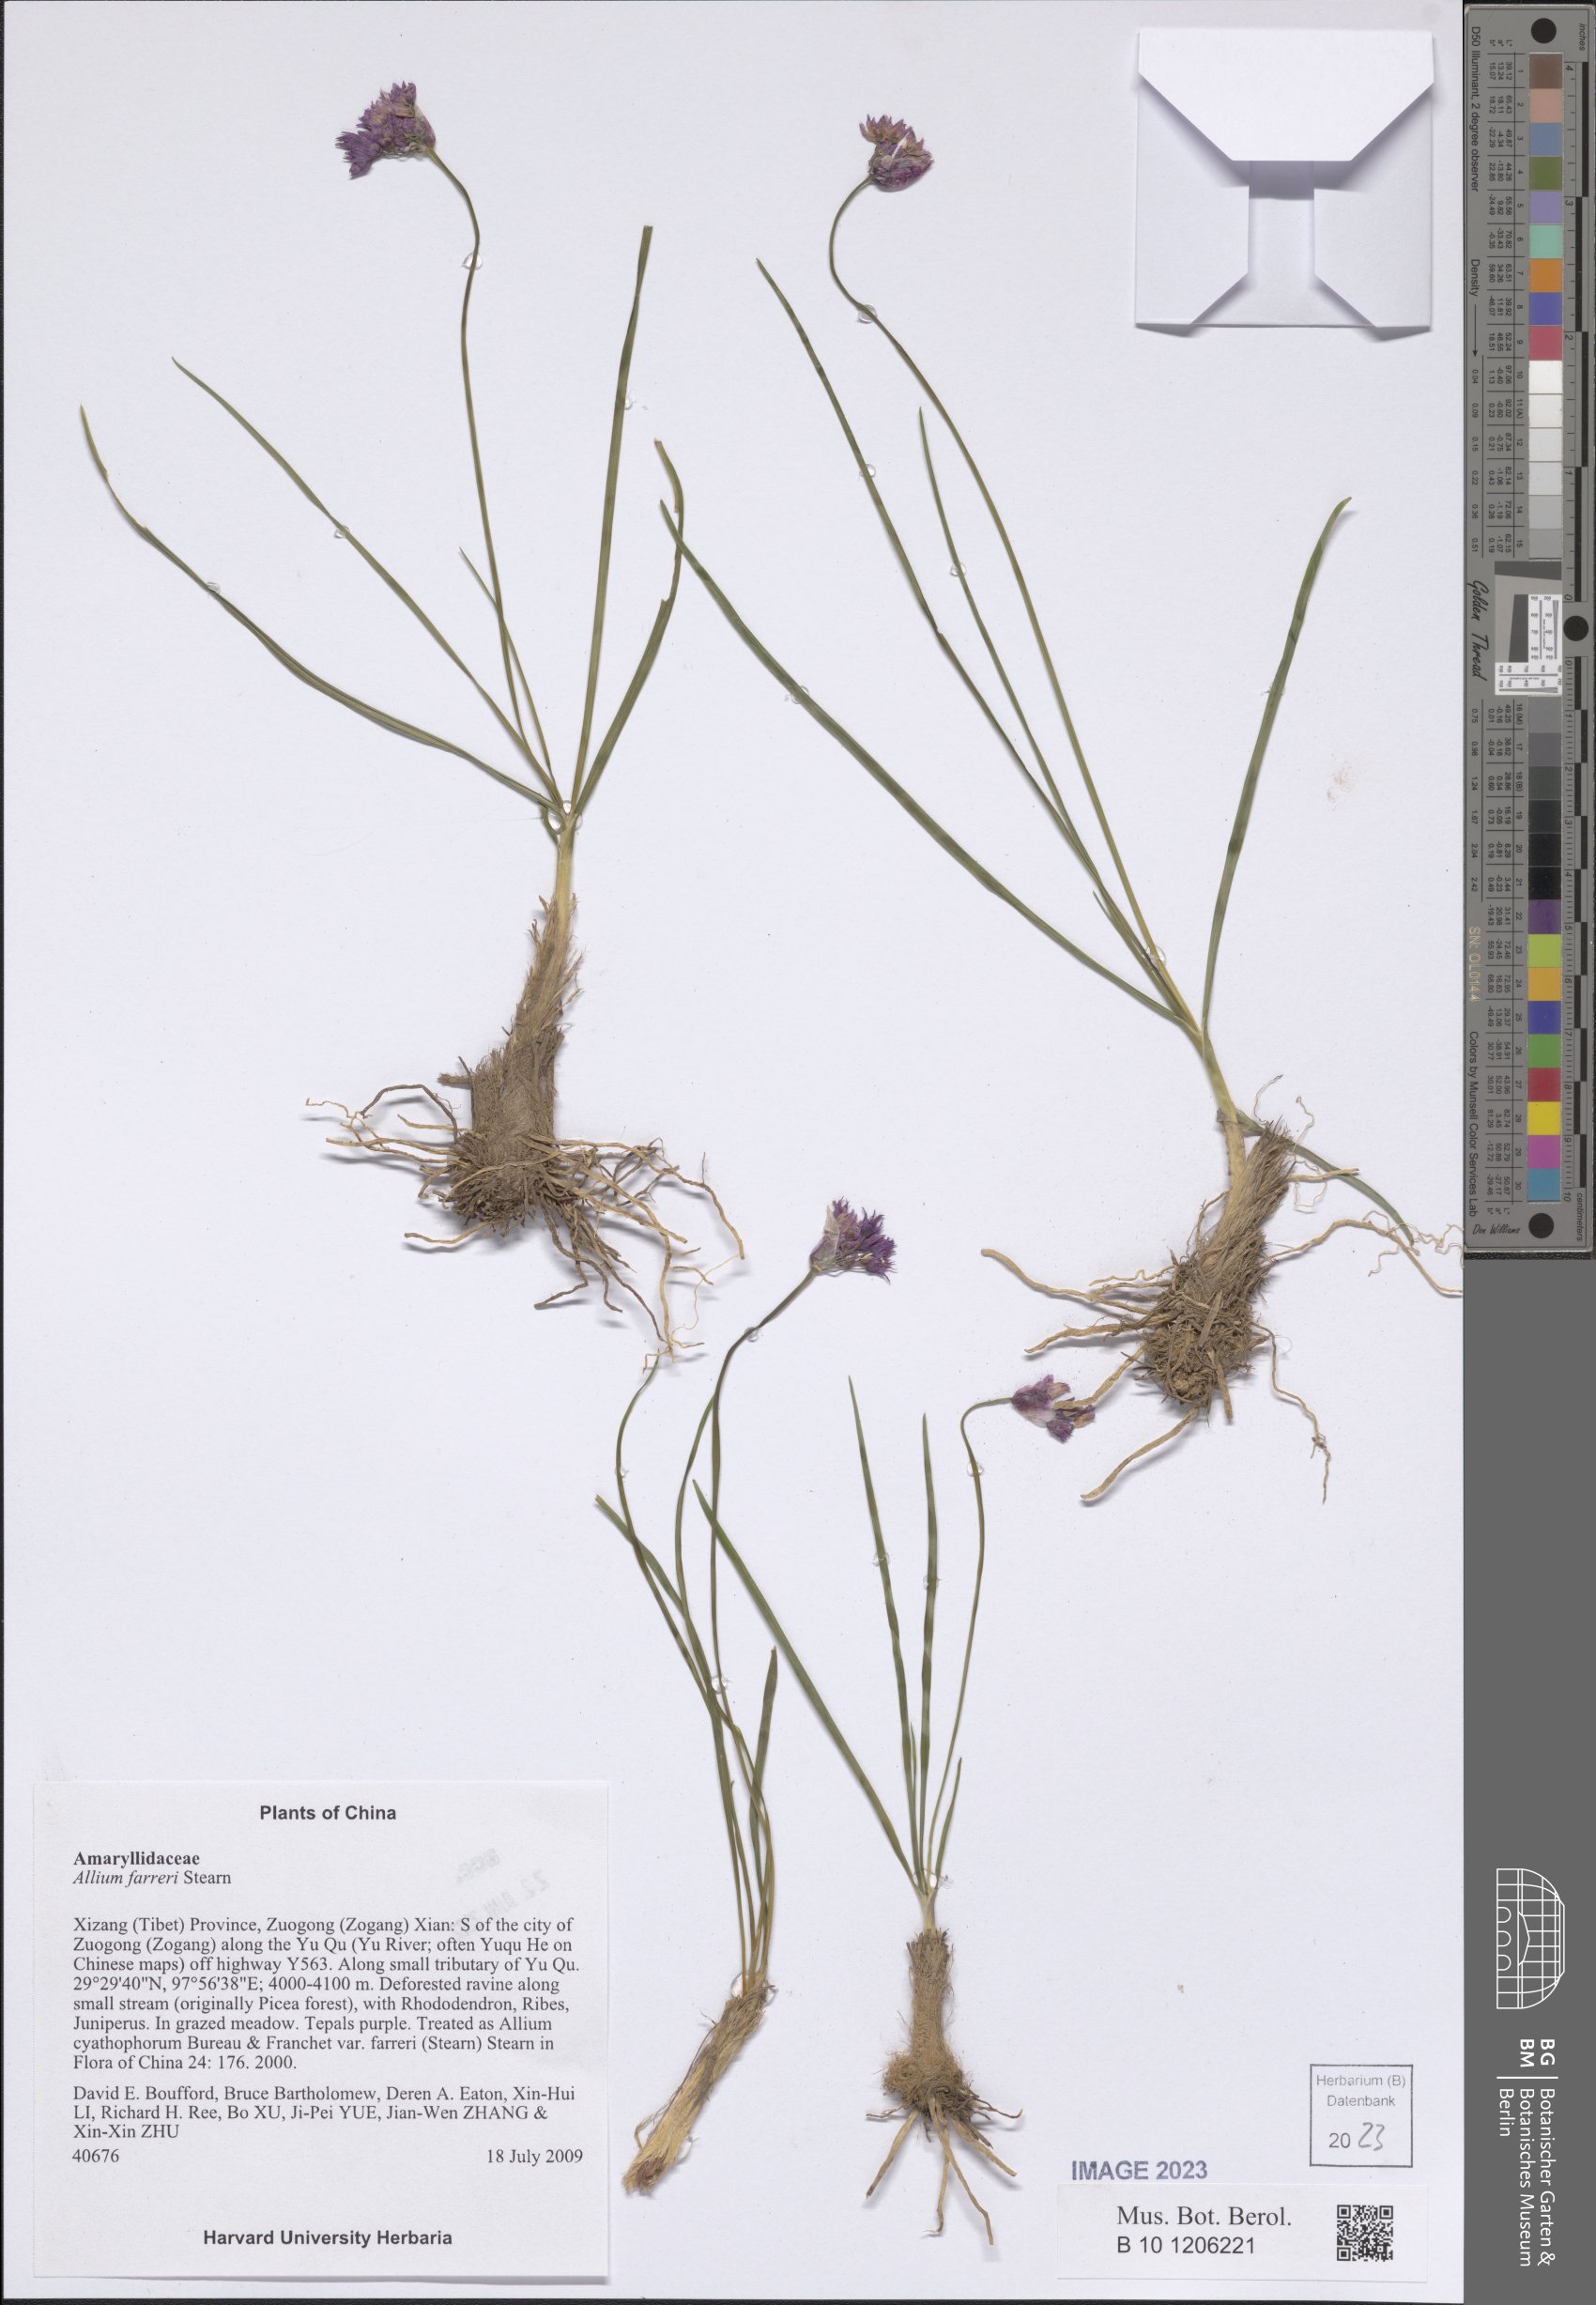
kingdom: Plantae
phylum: Tracheophyta
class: Liliopsida
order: Asparagales
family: Amaryllidaceae
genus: Allium
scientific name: Allium farreri
